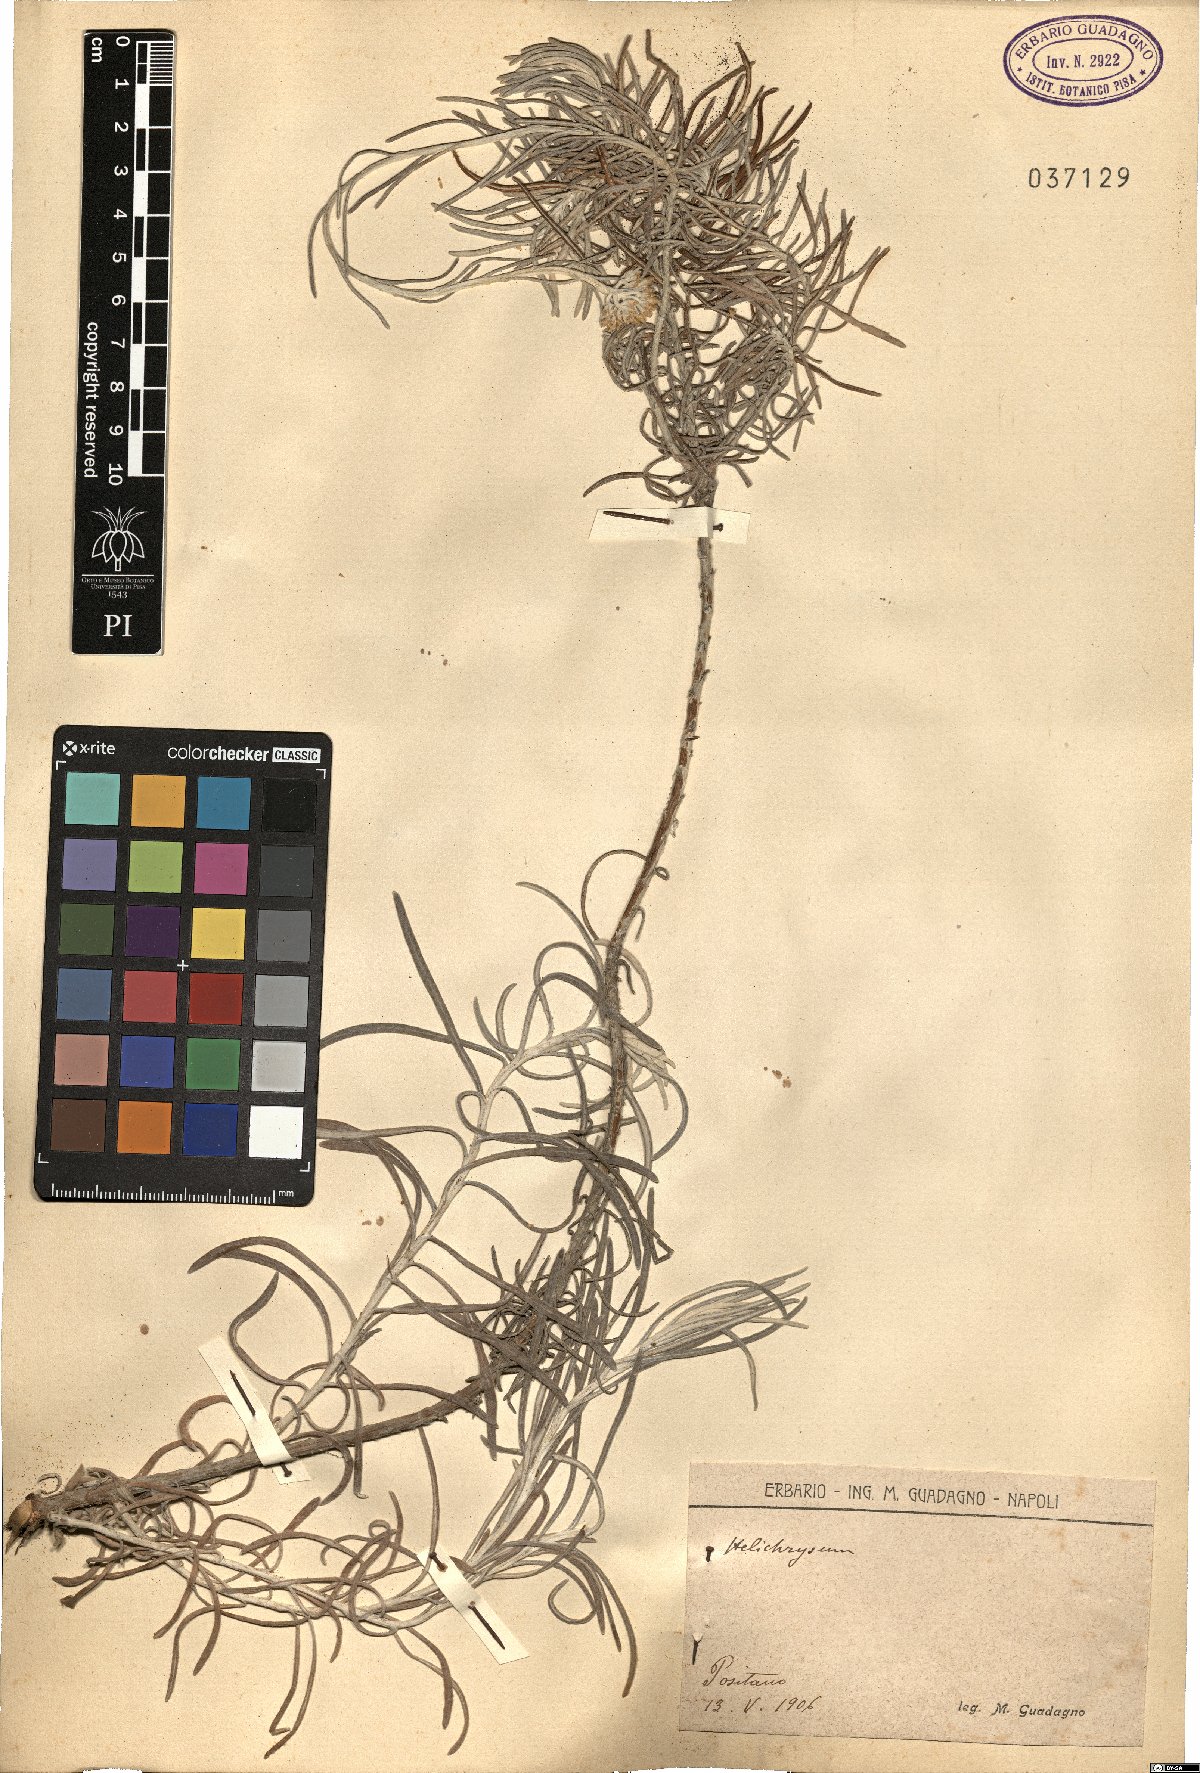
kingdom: Plantae
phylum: Tracheophyta
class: Magnoliopsida
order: Asterales
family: Asteraceae
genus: Helichrysum
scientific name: Helichrysum
